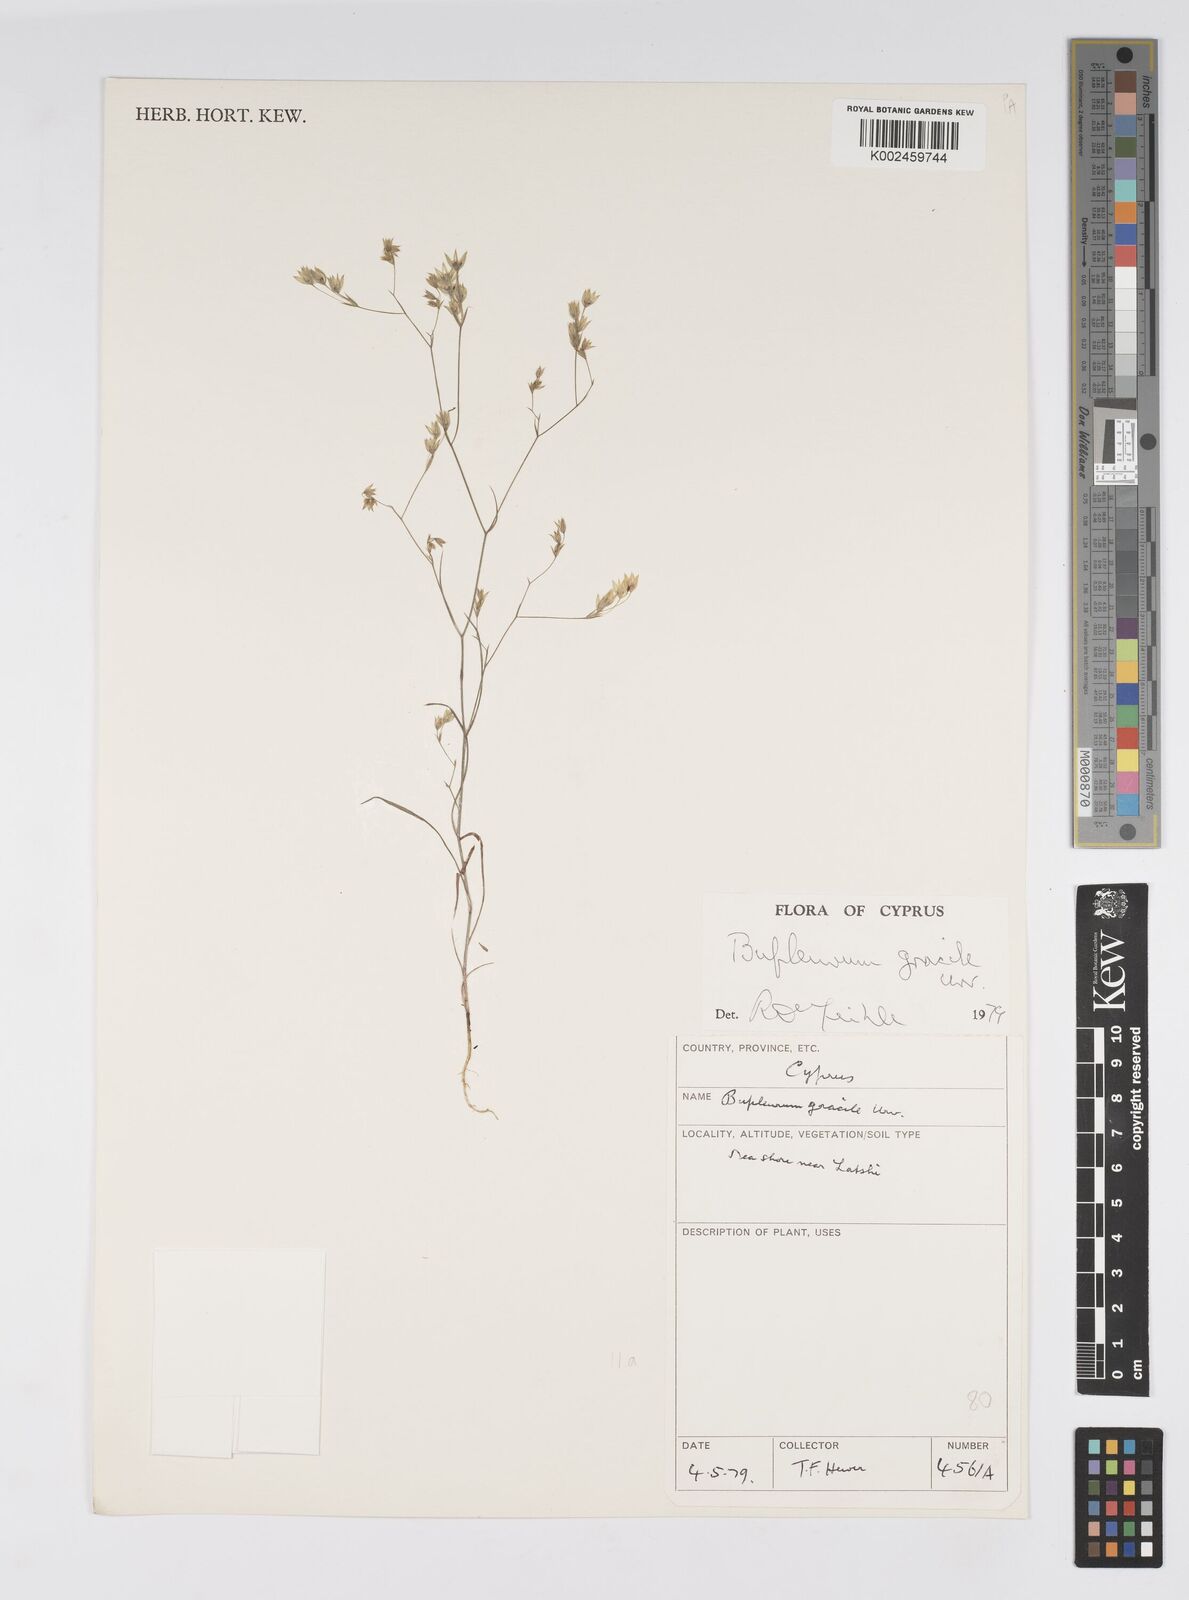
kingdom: Plantae
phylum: Tracheophyta
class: Magnoliopsida
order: Apiales
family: Apiaceae
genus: Bupleurum
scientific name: Bupleurum gracile
